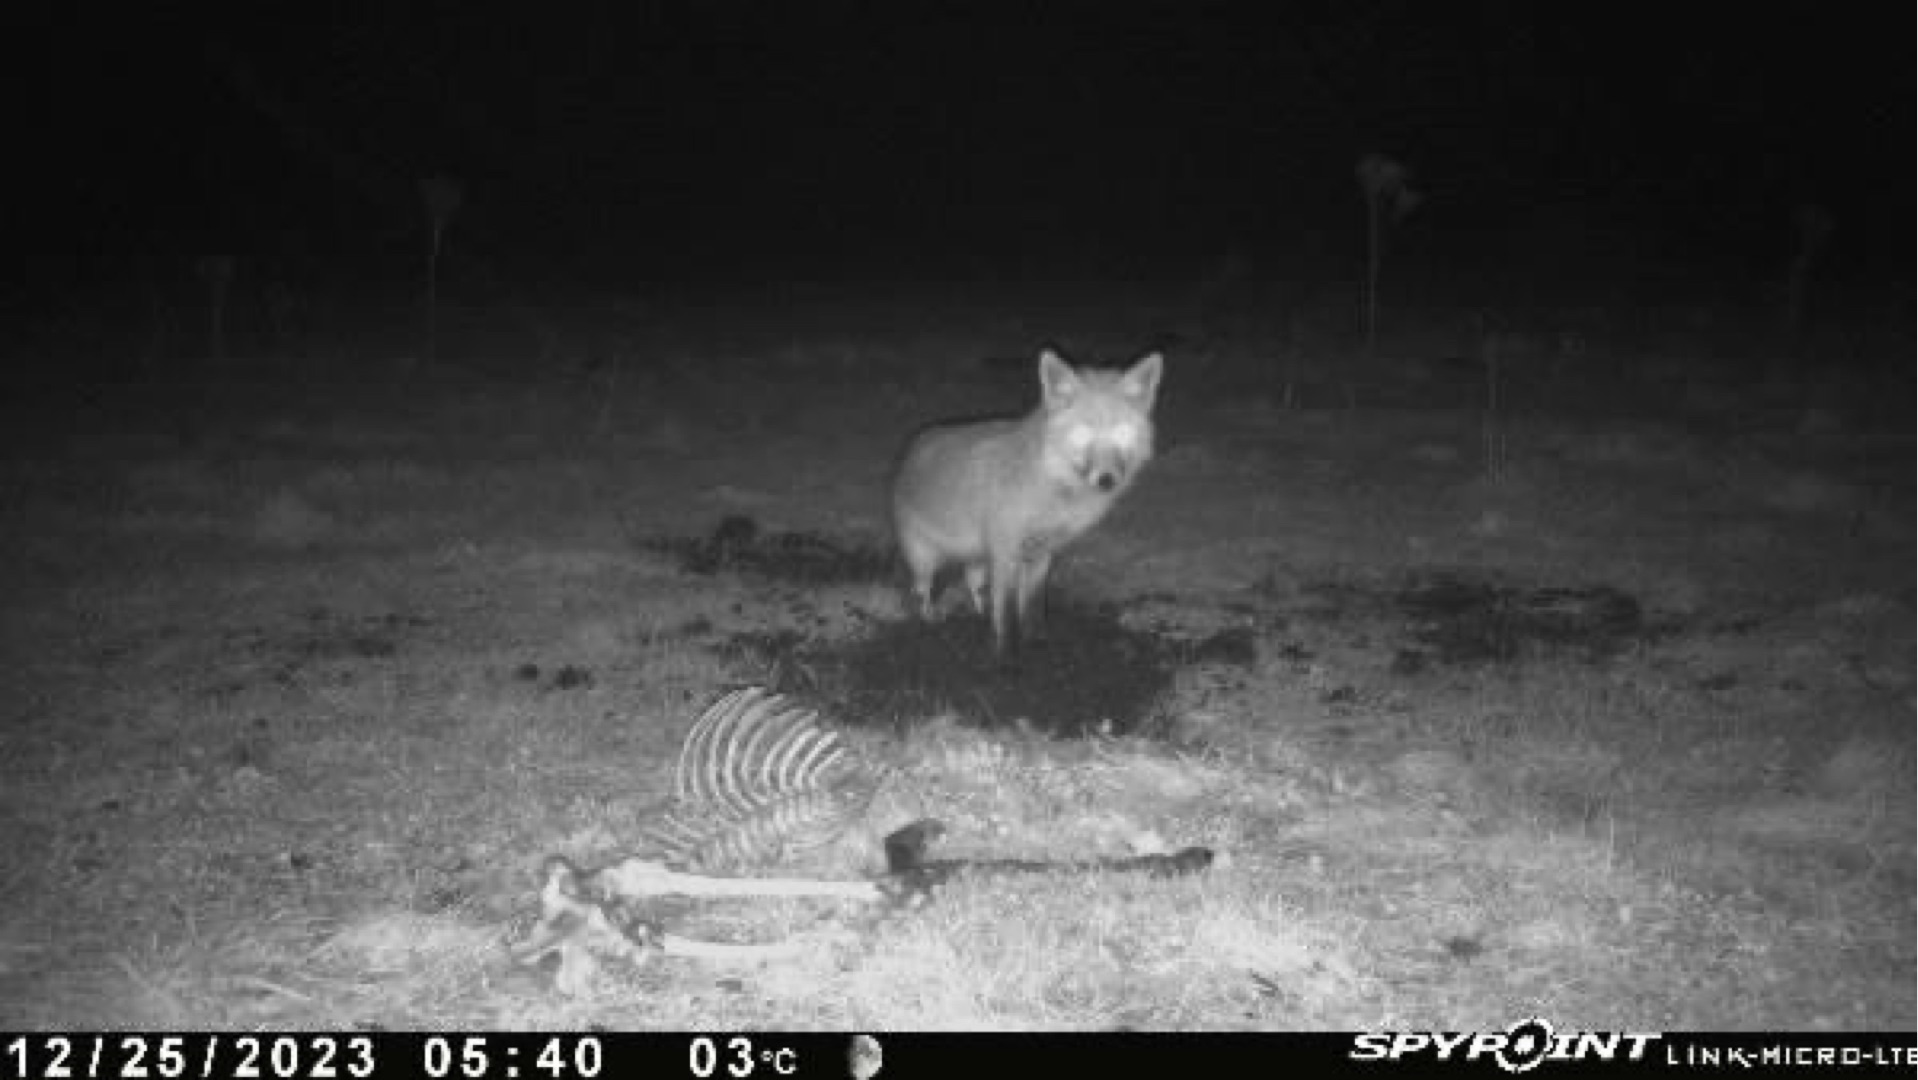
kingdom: Animalia
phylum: Chordata
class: Mammalia
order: Carnivora
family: Canidae
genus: Vulpes
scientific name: Vulpes vulpes
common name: Ræv
